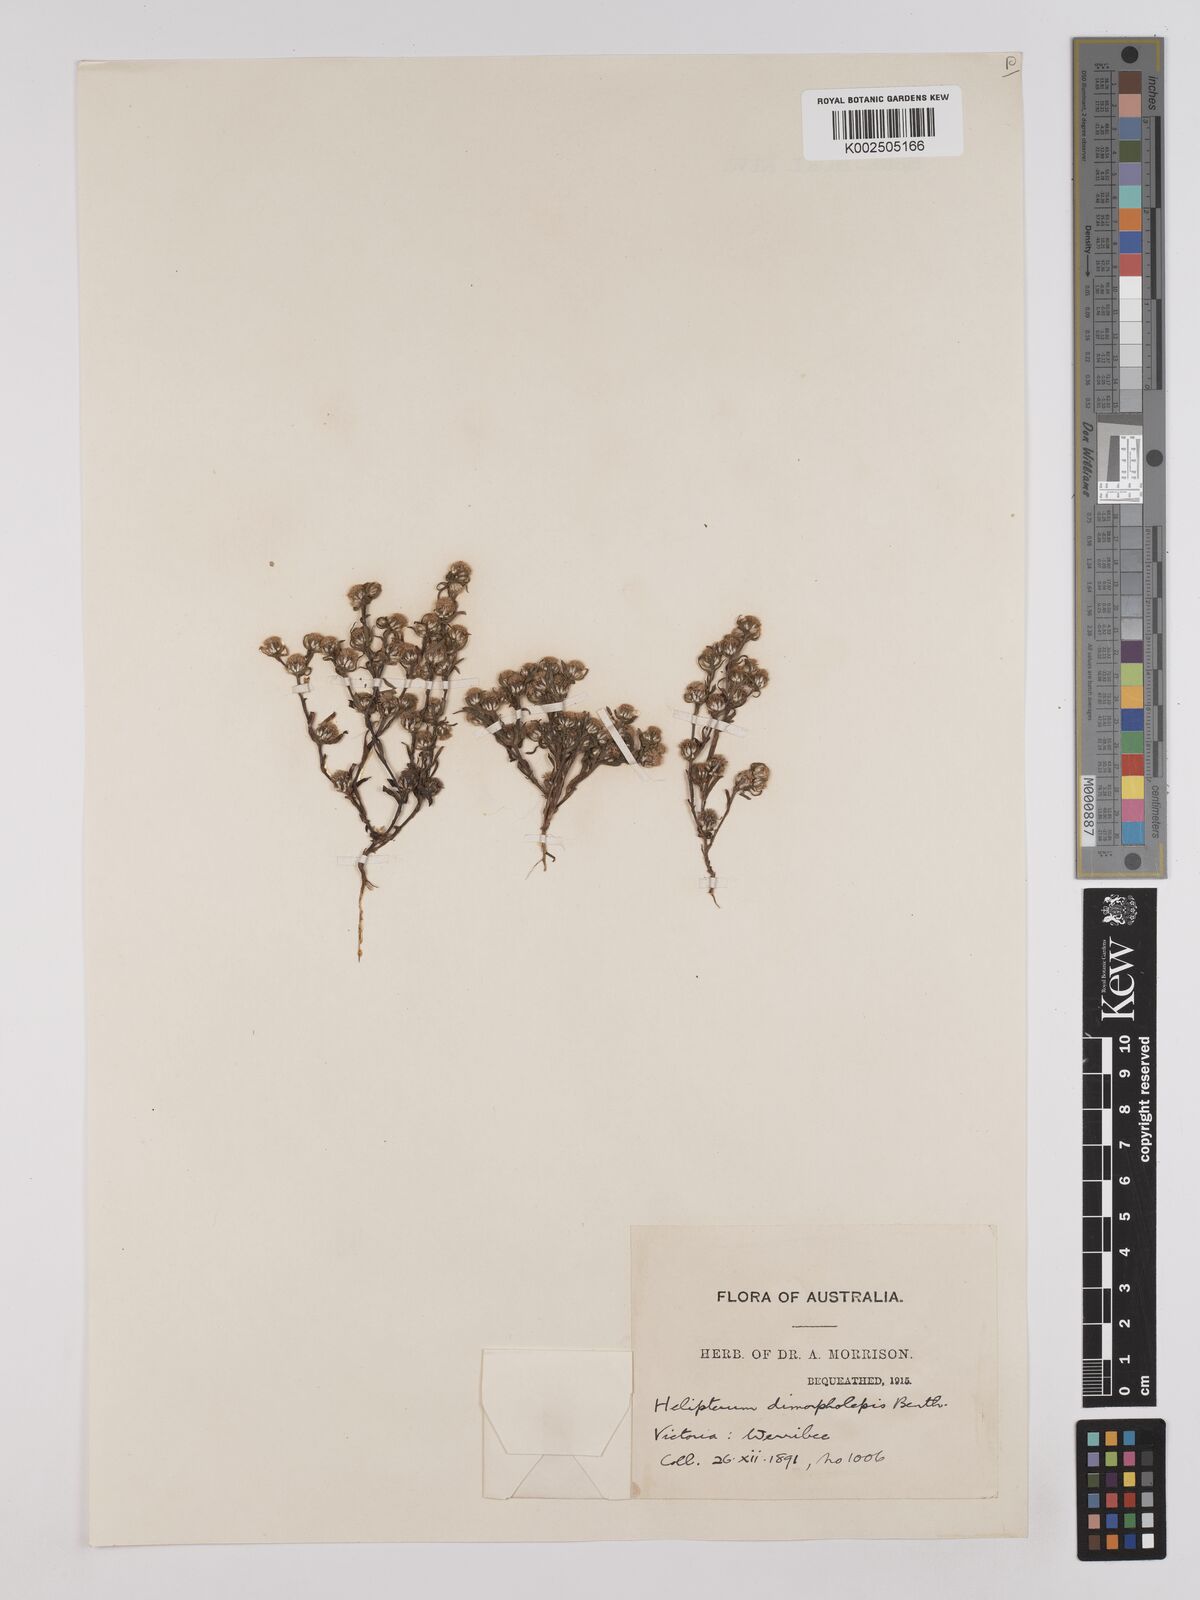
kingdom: Plantae
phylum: Tracheophyta
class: Magnoliopsida
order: Asterales
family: Asteraceae
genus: Triptilodiscus
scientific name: Triptilodiscus pygmaeus
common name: Common sunray
